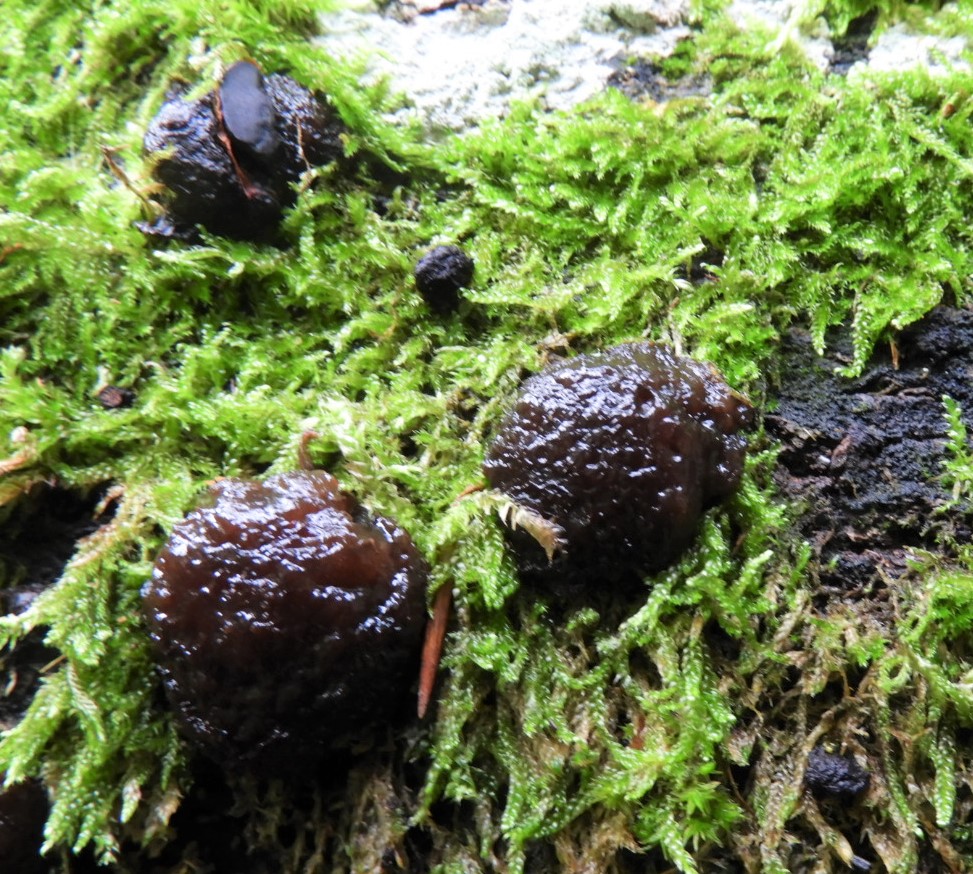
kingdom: Fungi
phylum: Ascomycota
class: Leotiomycetes
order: Phacidiales
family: Phacidiaceae
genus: Bulgaria
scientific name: Bulgaria inquinans
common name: afsmittende topsvamp
